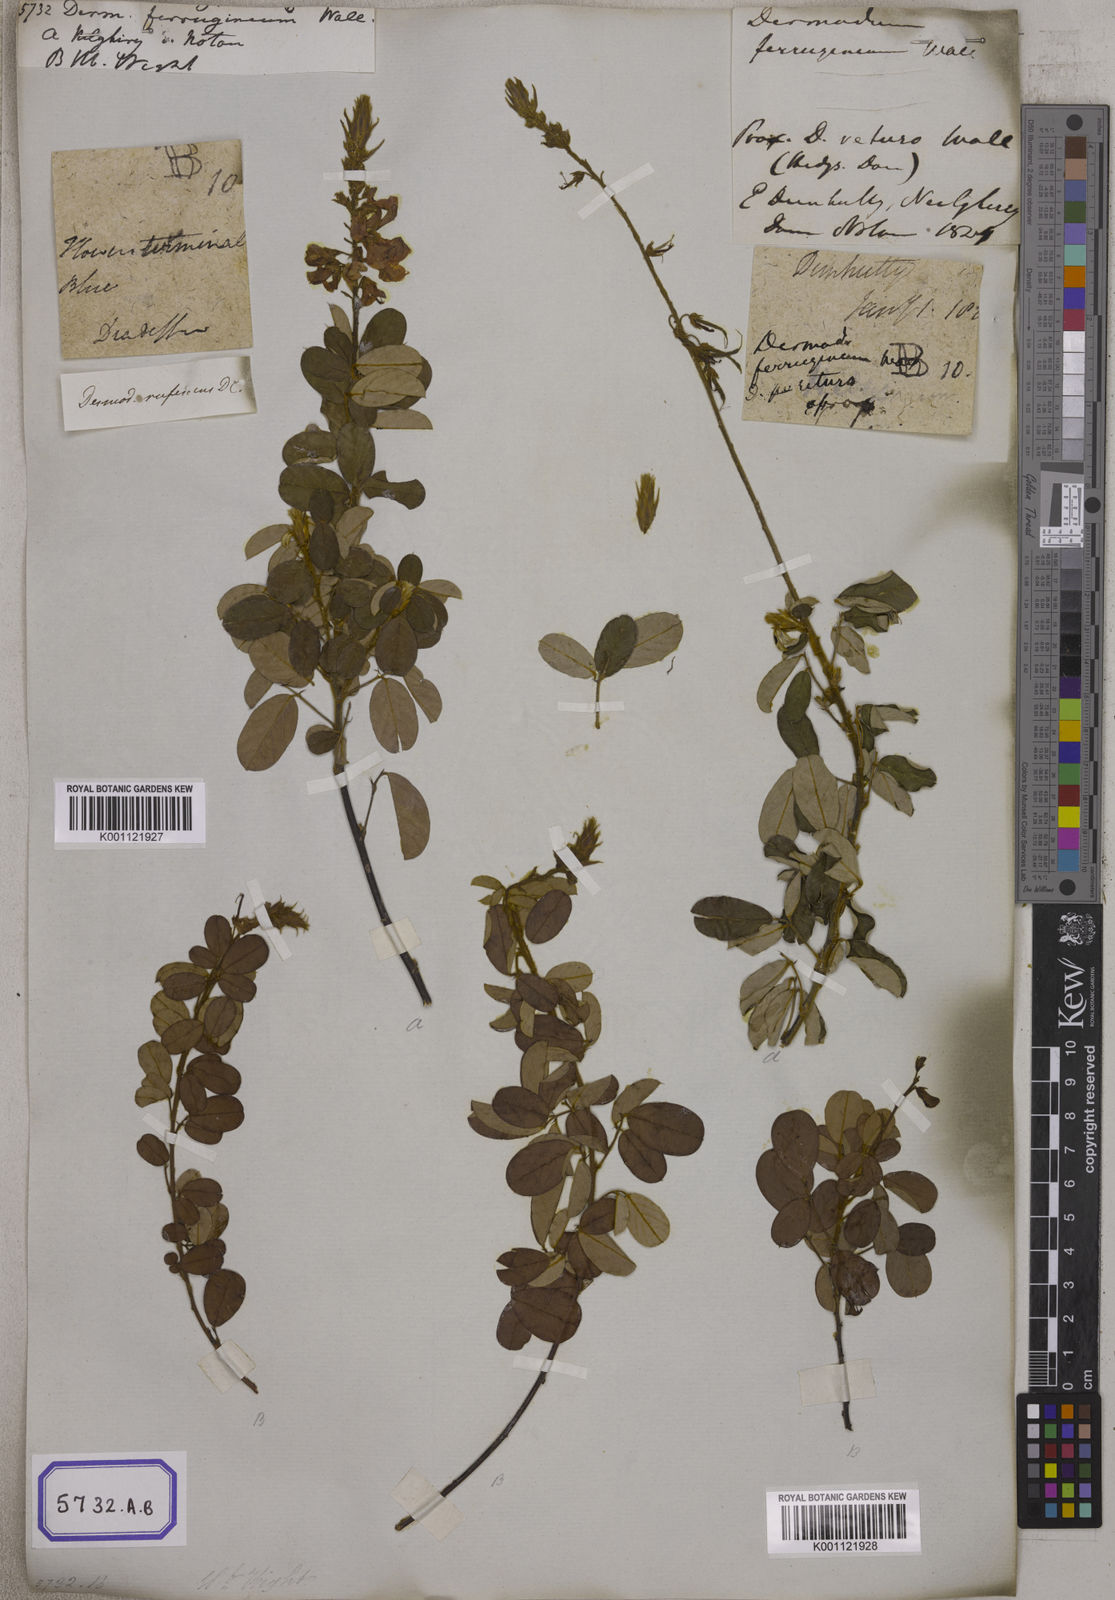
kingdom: Plantae
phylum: Tracheophyta
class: Magnoliopsida
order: Fabales
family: Fabaceae
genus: Desmodium
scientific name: Desmodium
